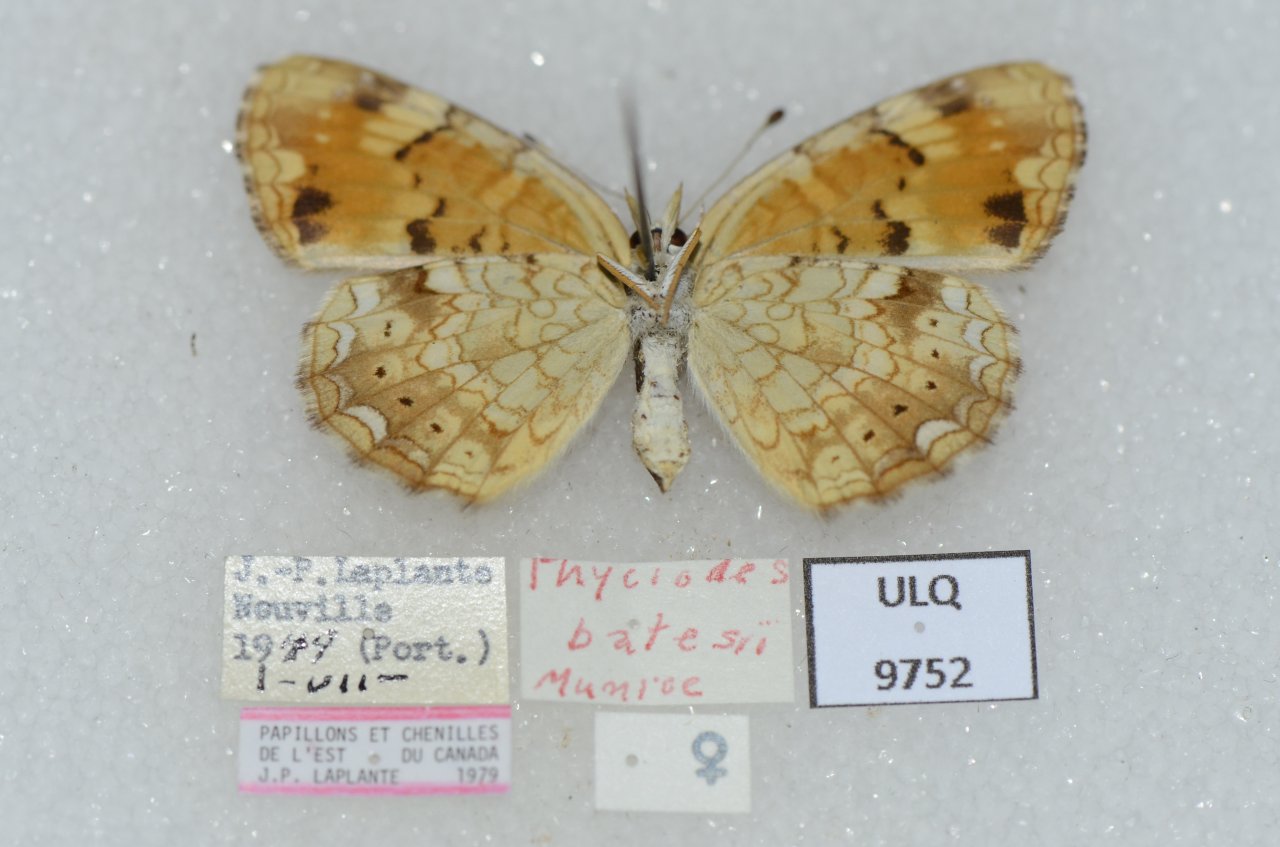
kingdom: Animalia
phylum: Arthropoda
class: Insecta
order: Lepidoptera
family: Nymphalidae
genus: Phyciodes
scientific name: Phyciodes tharos
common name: Northern Crescent
